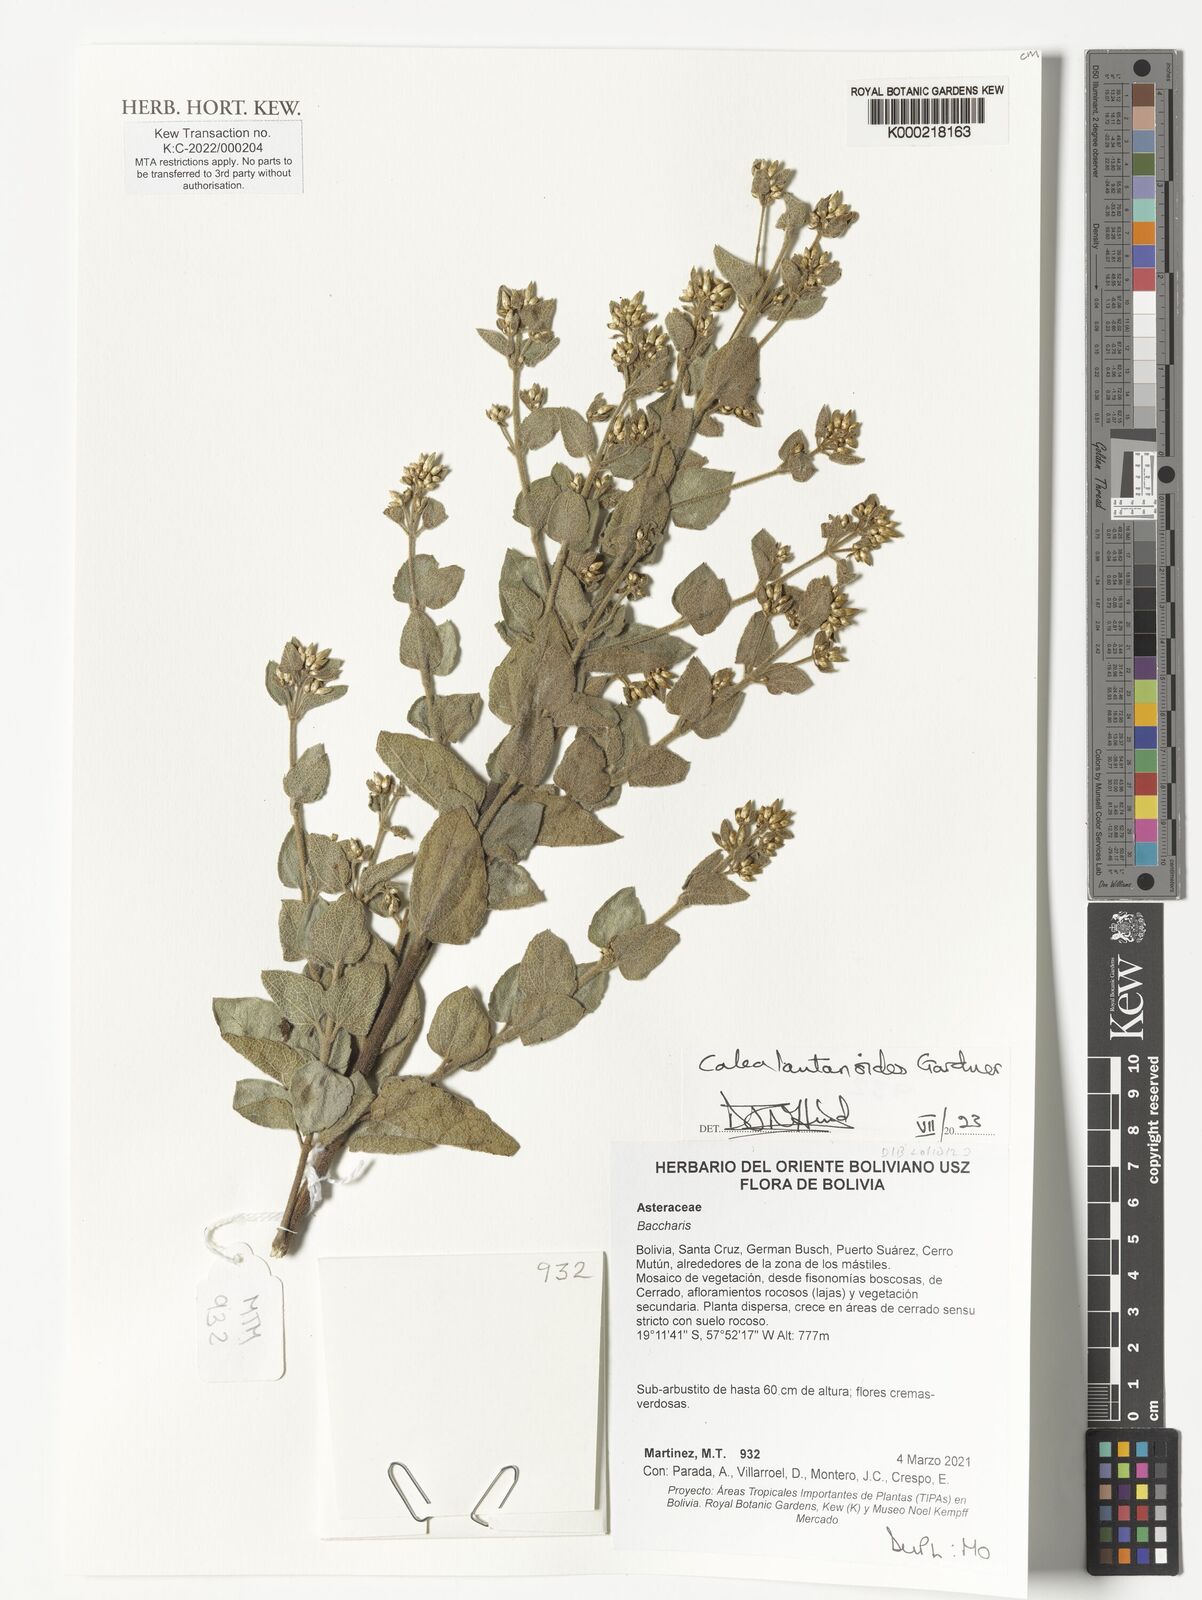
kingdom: Plantae
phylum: Tracheophyta
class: Magnoliopsida
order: Asterales
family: Asteraceae
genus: Calea
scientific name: Calea lantanoides
